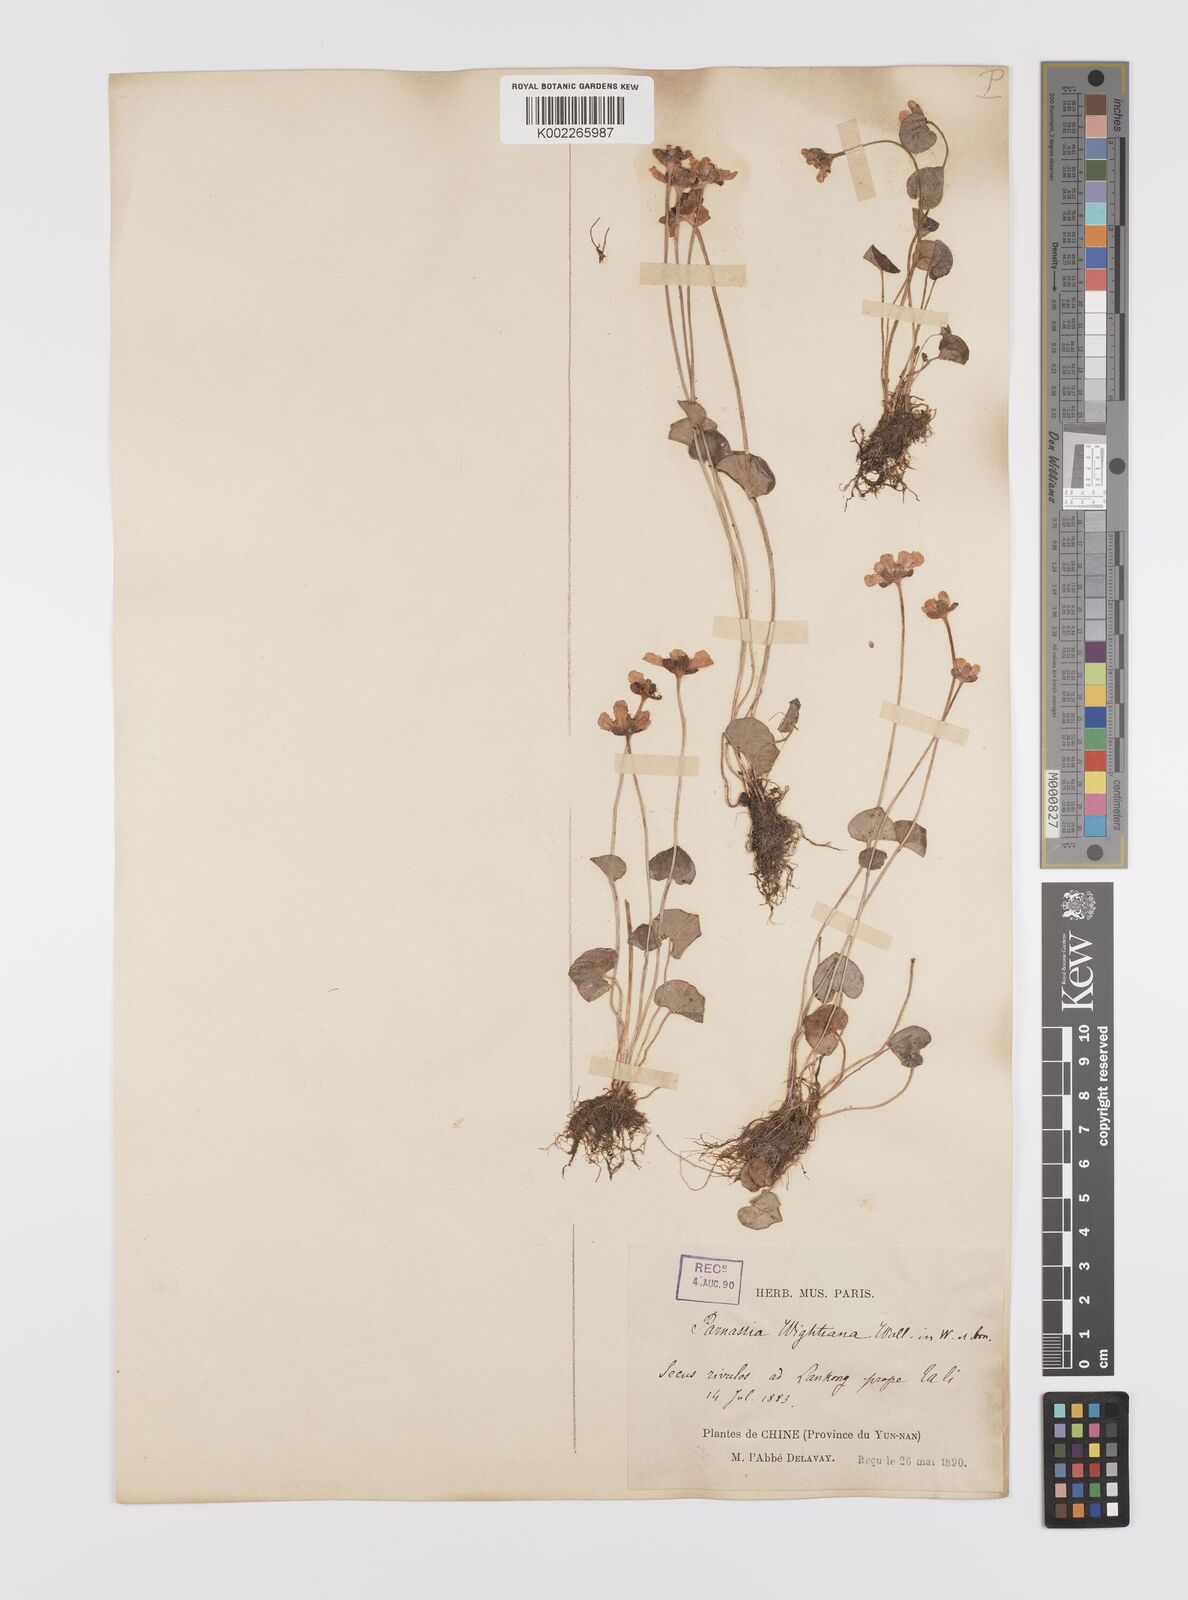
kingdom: Plantae
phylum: Tracheophyta
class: Magnoliopsida
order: Celastrales
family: Parnassiaceae
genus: Parnassia
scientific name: Parnassia wightiana
